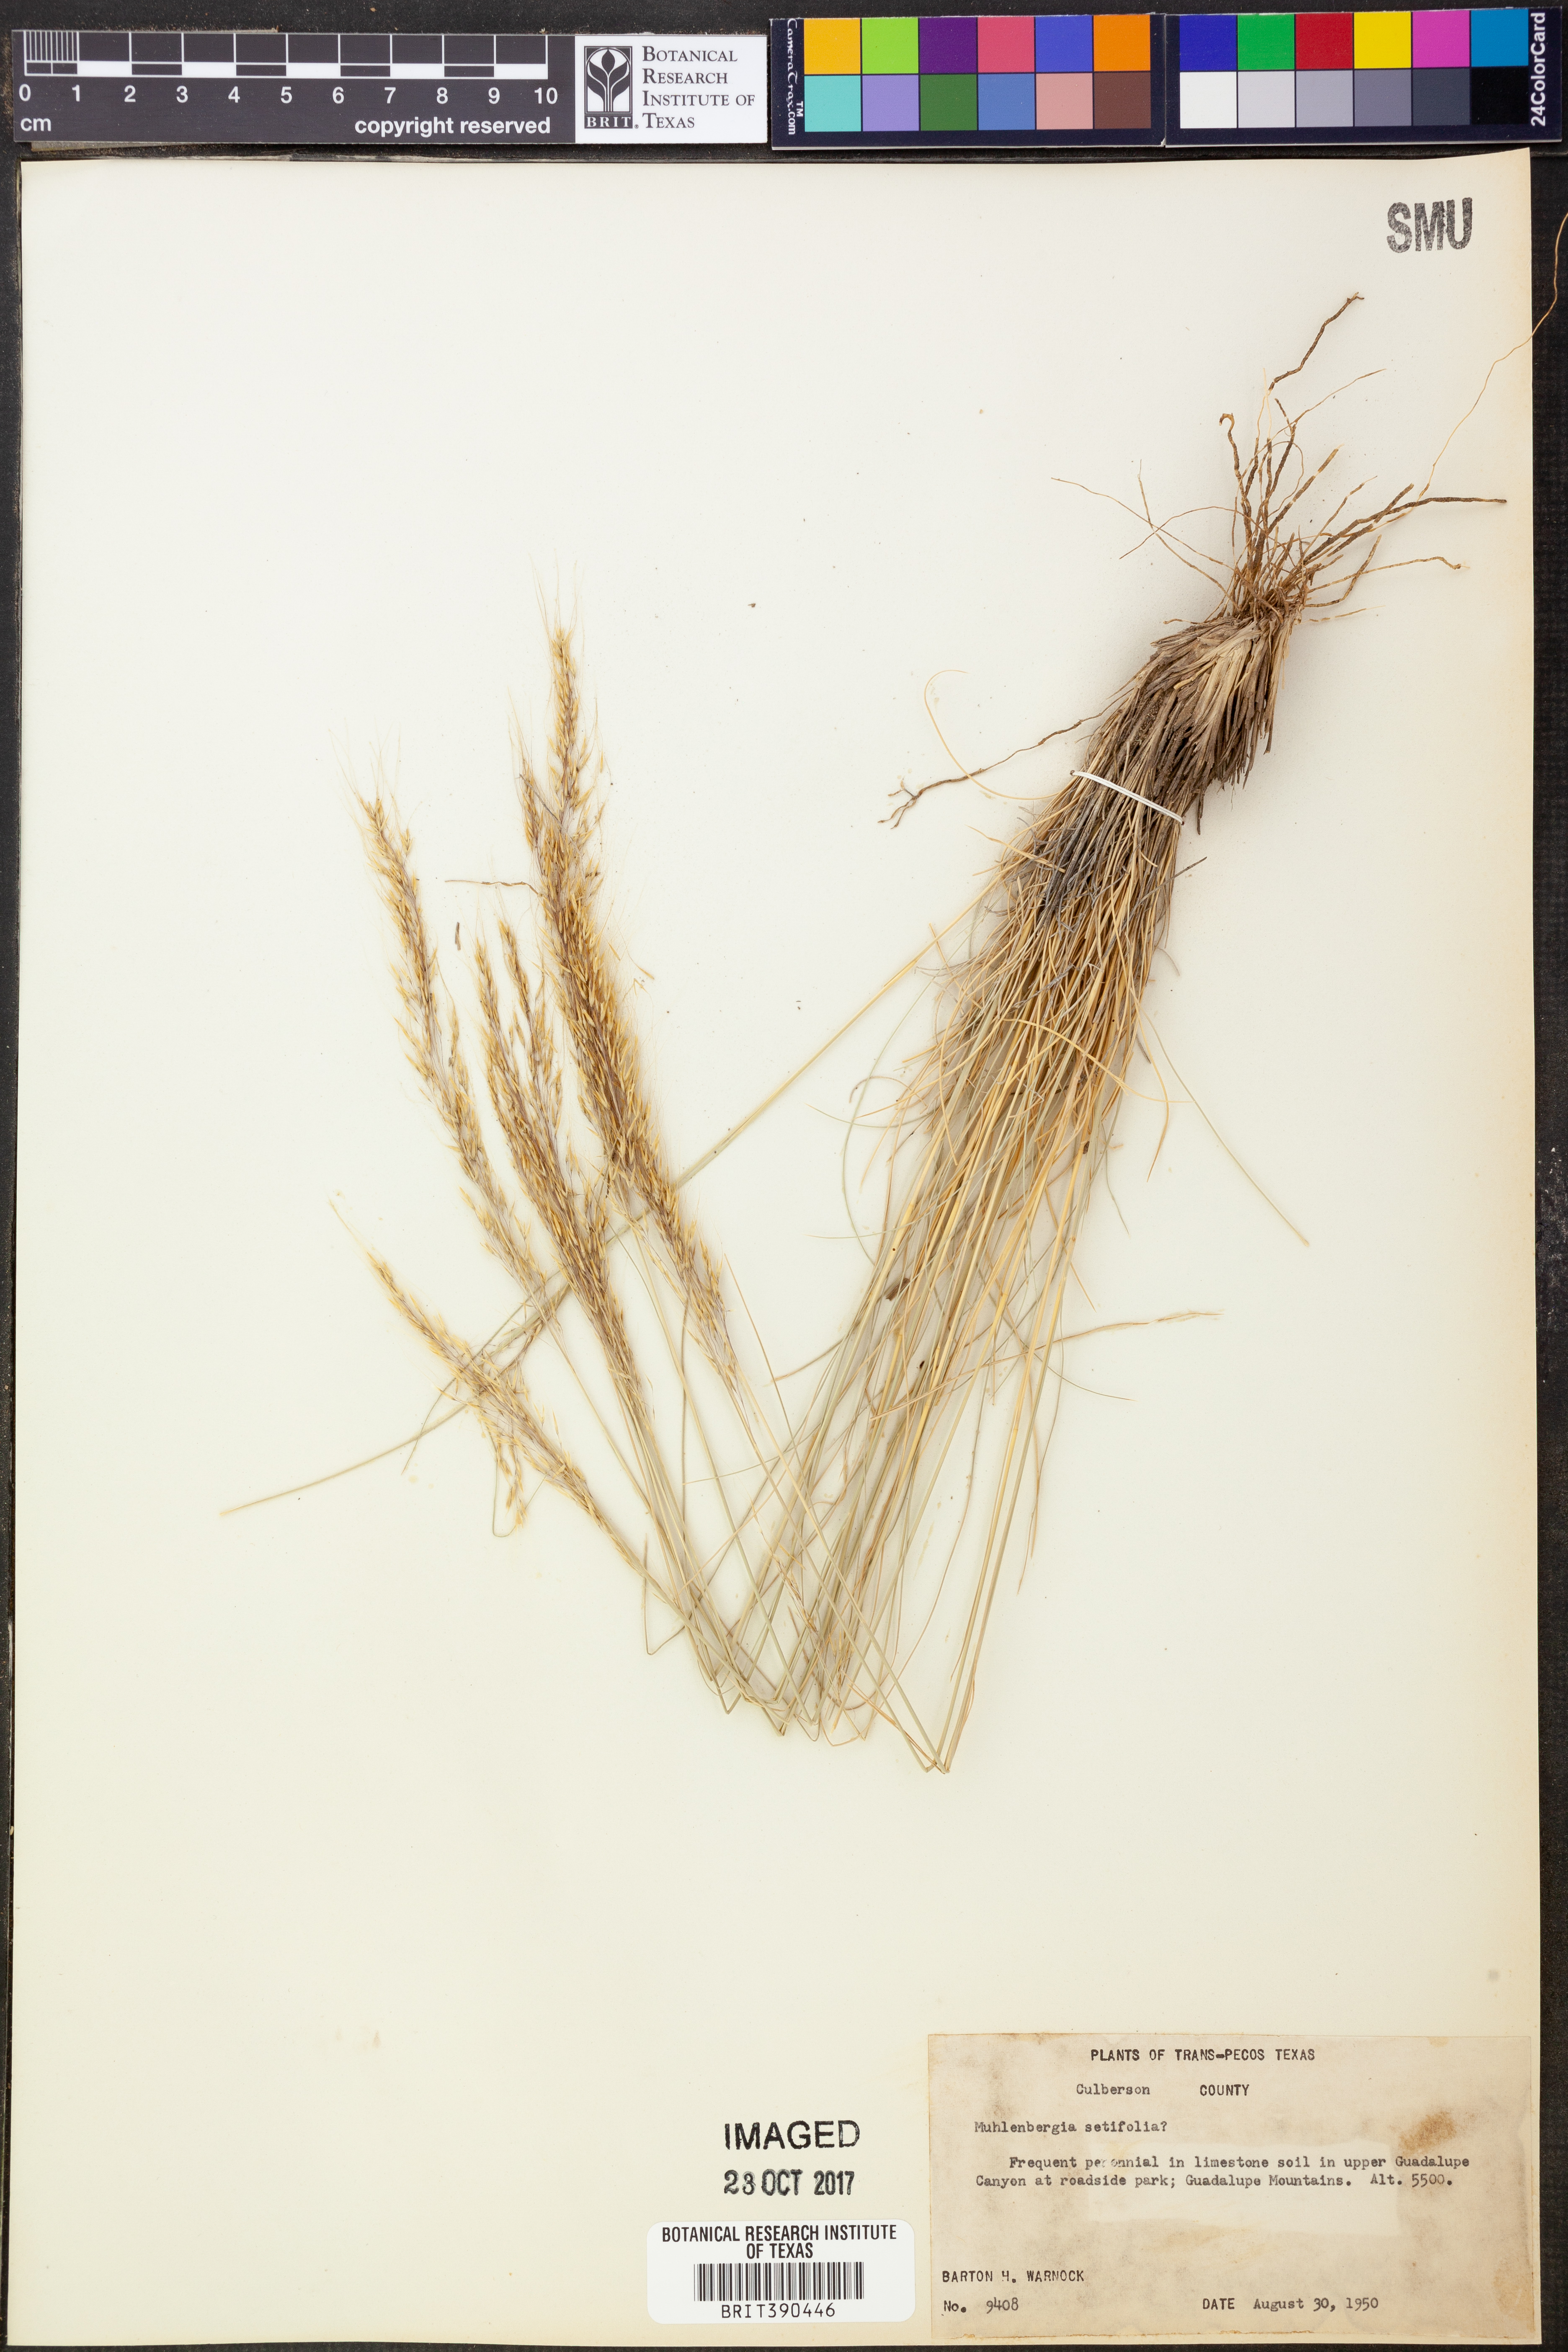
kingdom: Plantae
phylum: Tracheophyta
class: Liliopsida
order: Poales
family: Poaceae
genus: Muhlenbergia
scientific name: Muhlenbergia setifolia
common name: Curly-leaf muhly
